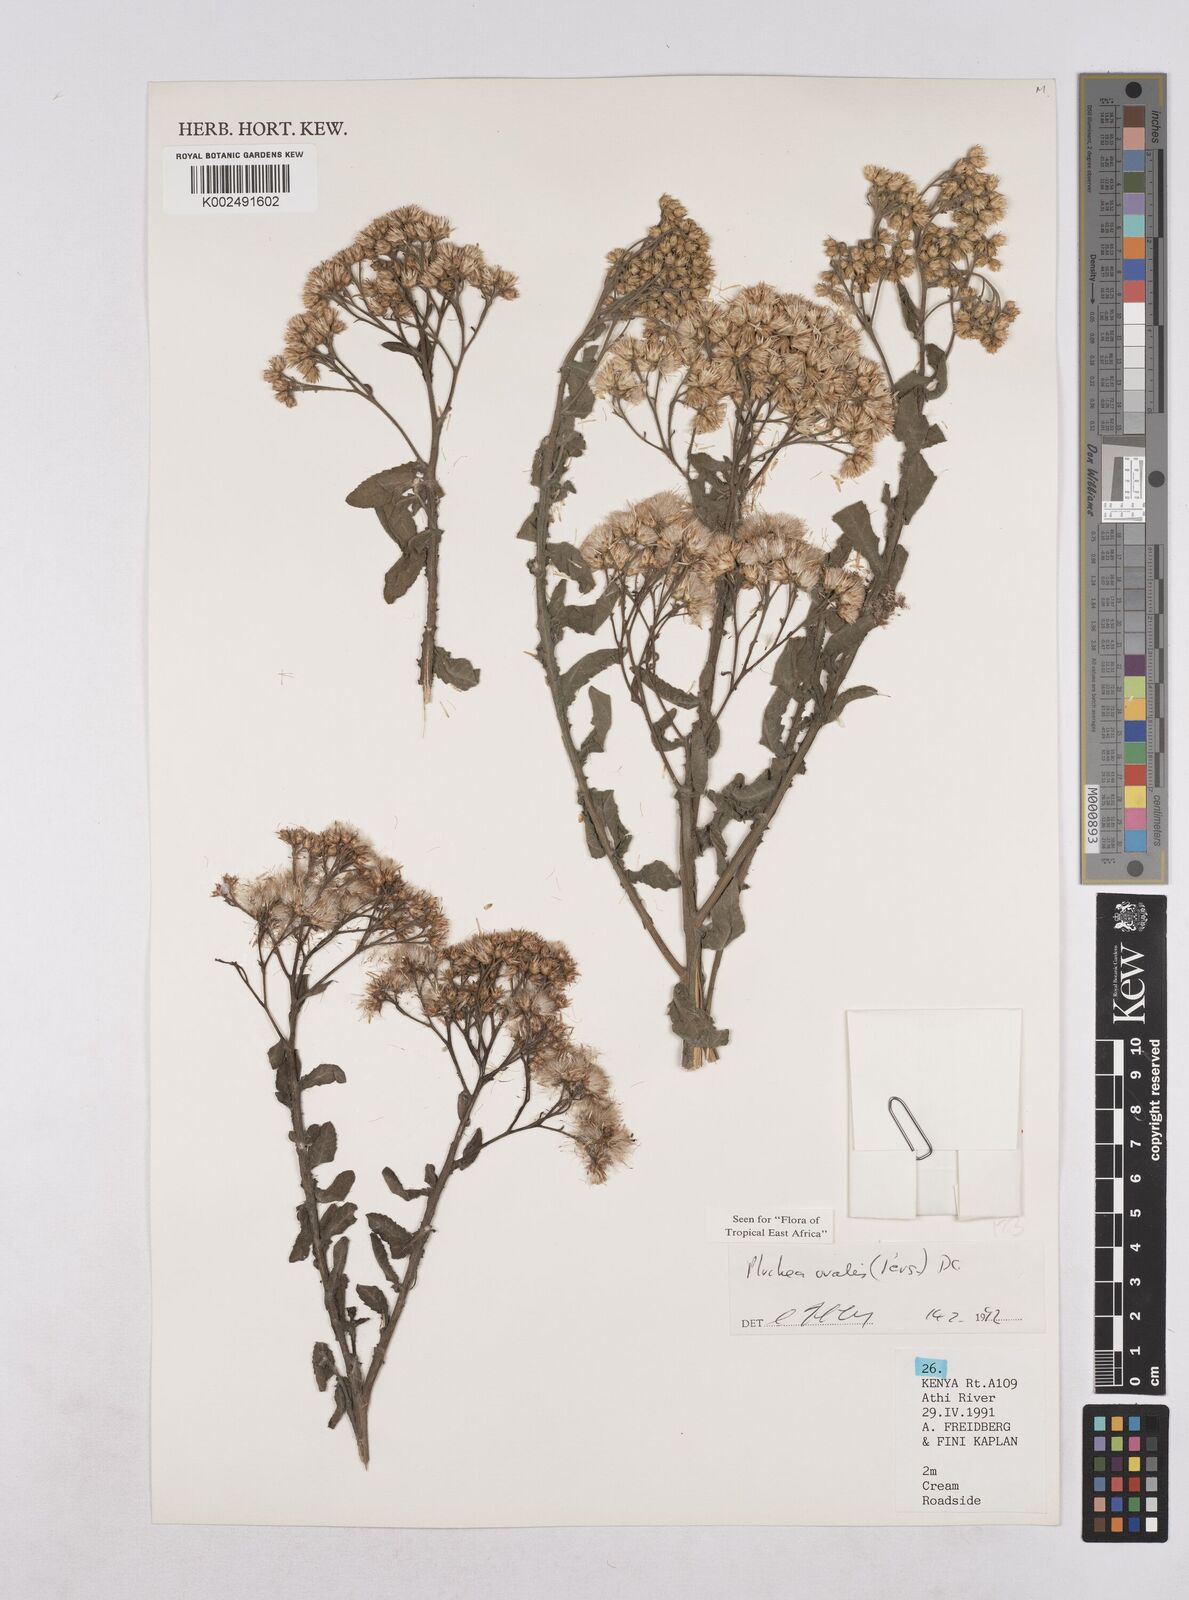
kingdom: Plantae
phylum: Tracheophyta
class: Magnoliopsida
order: Asterales
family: Asteraceae
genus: Pluchea
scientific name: Pluchea ovalis
